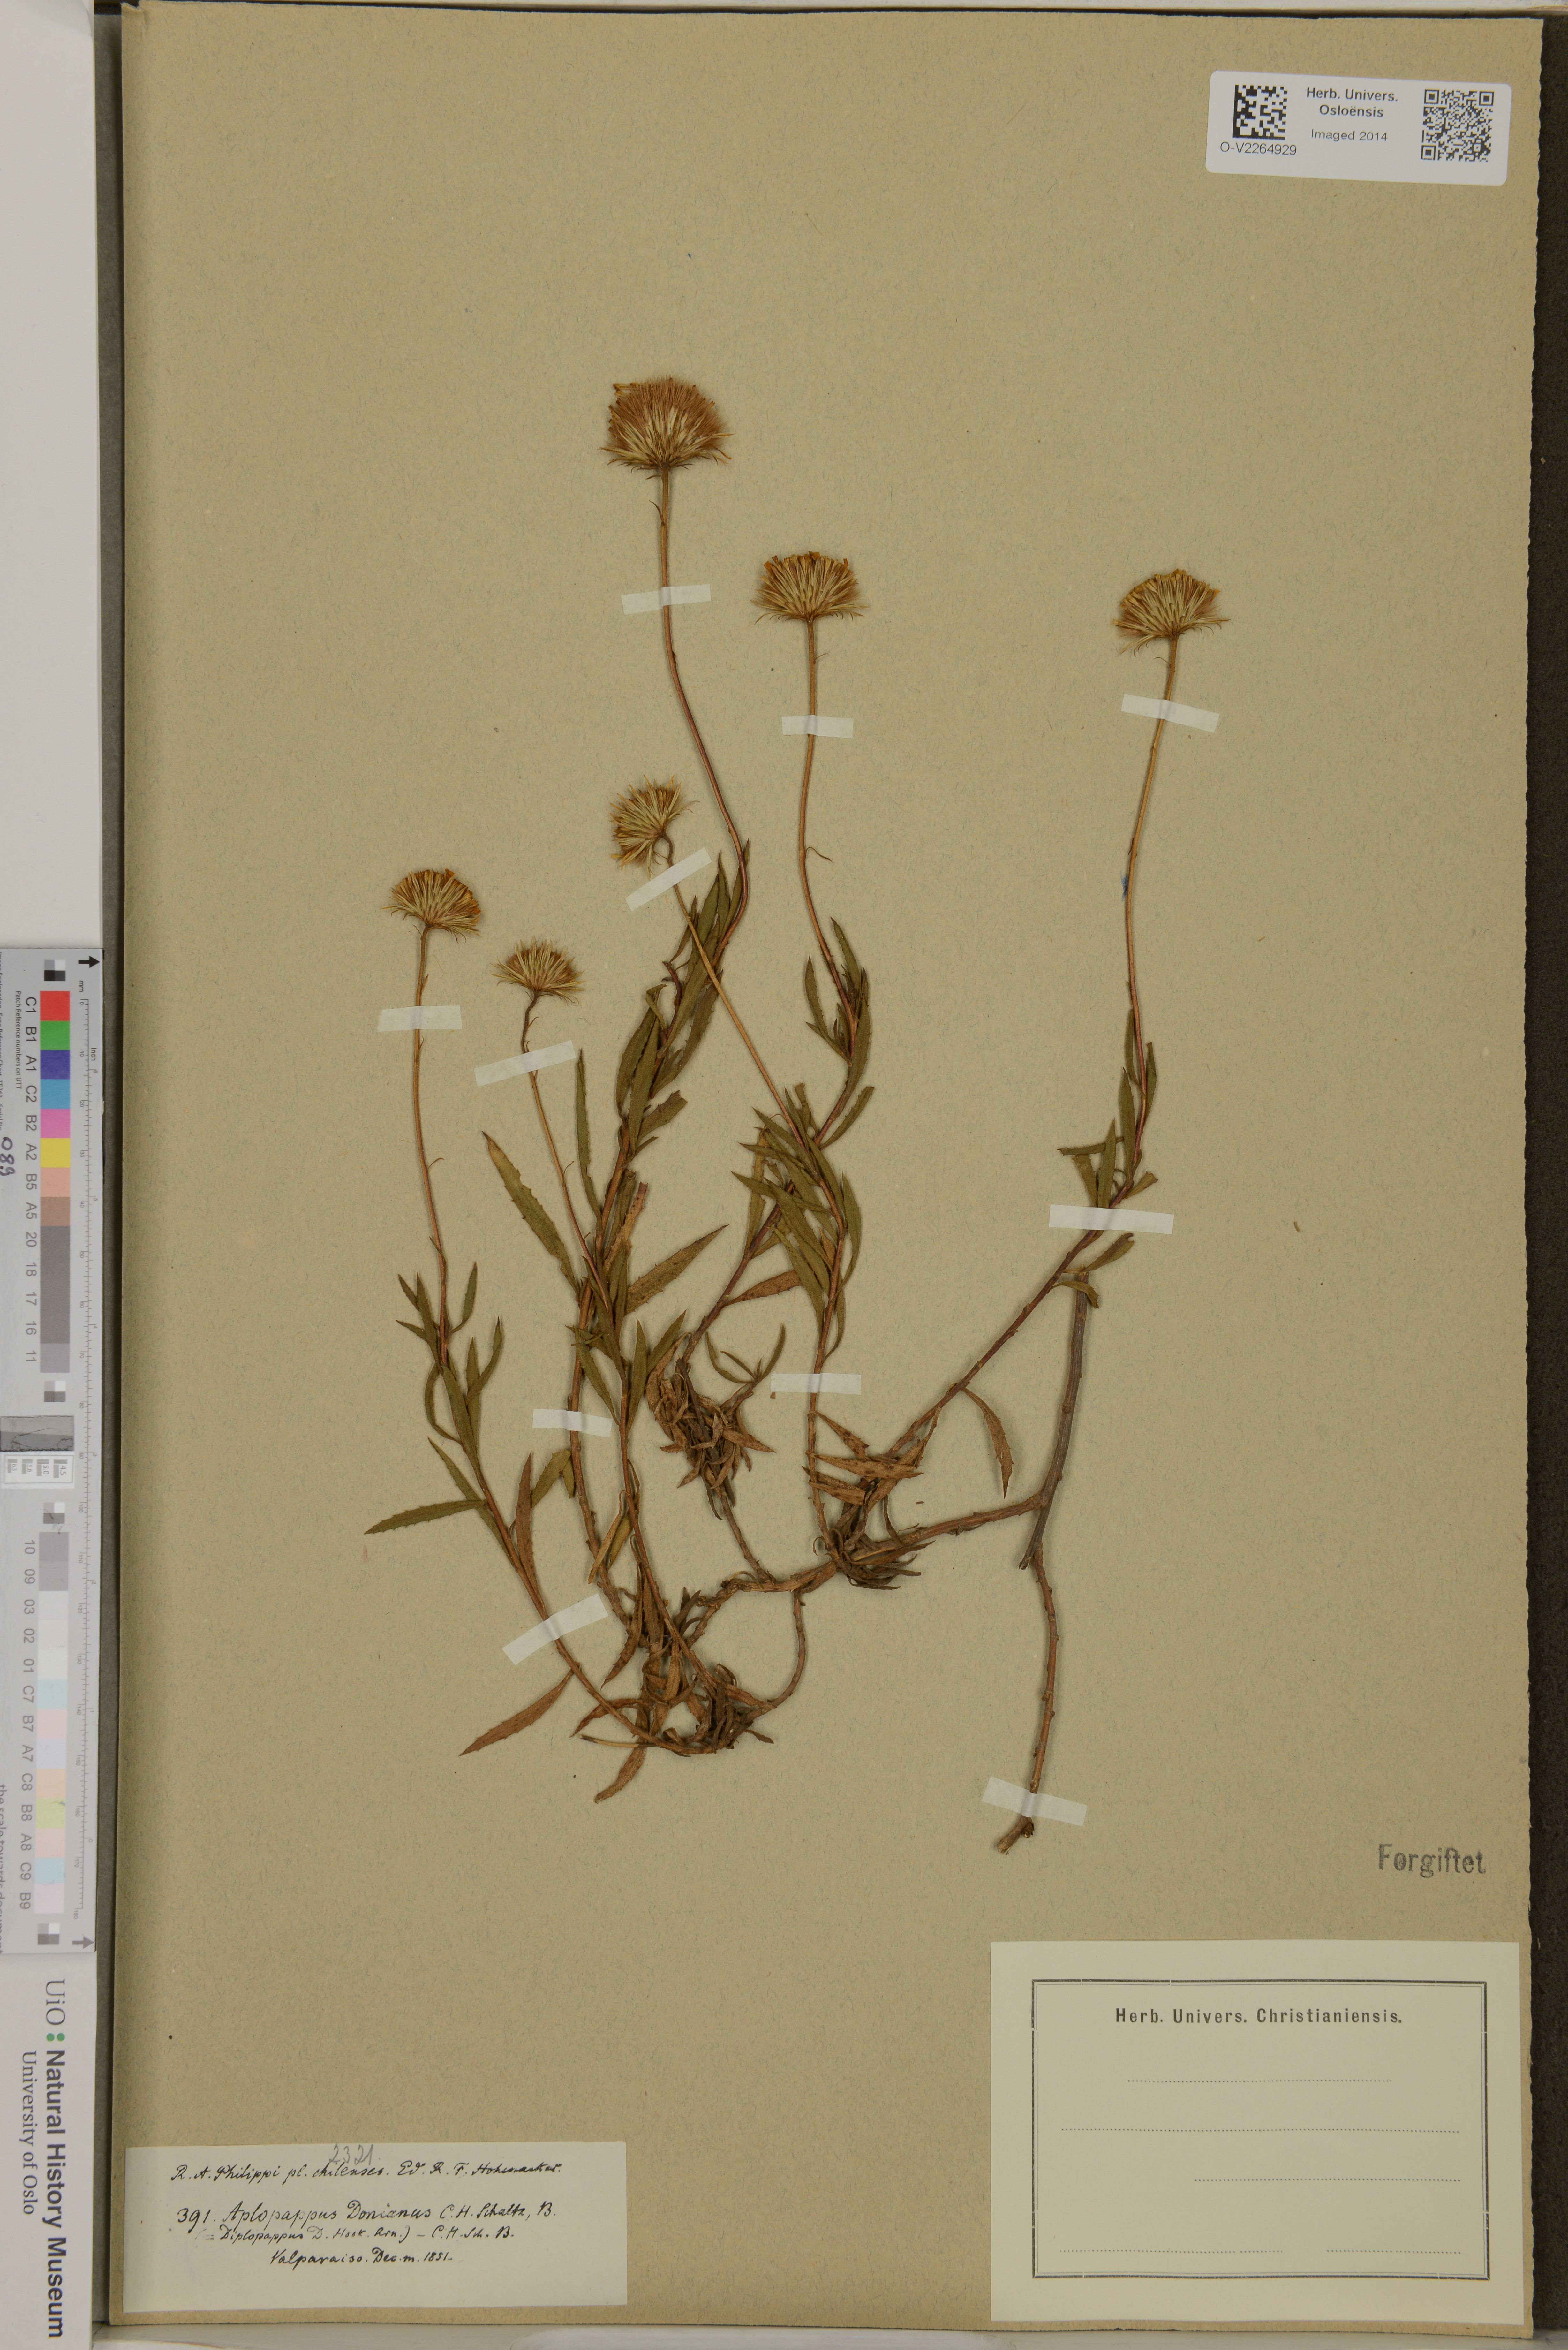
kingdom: Plantae
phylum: Tracheophyta
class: Magnoliopsida
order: Asterales
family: Asteraceae
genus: Haplopappus
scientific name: Haplopappus donianus
